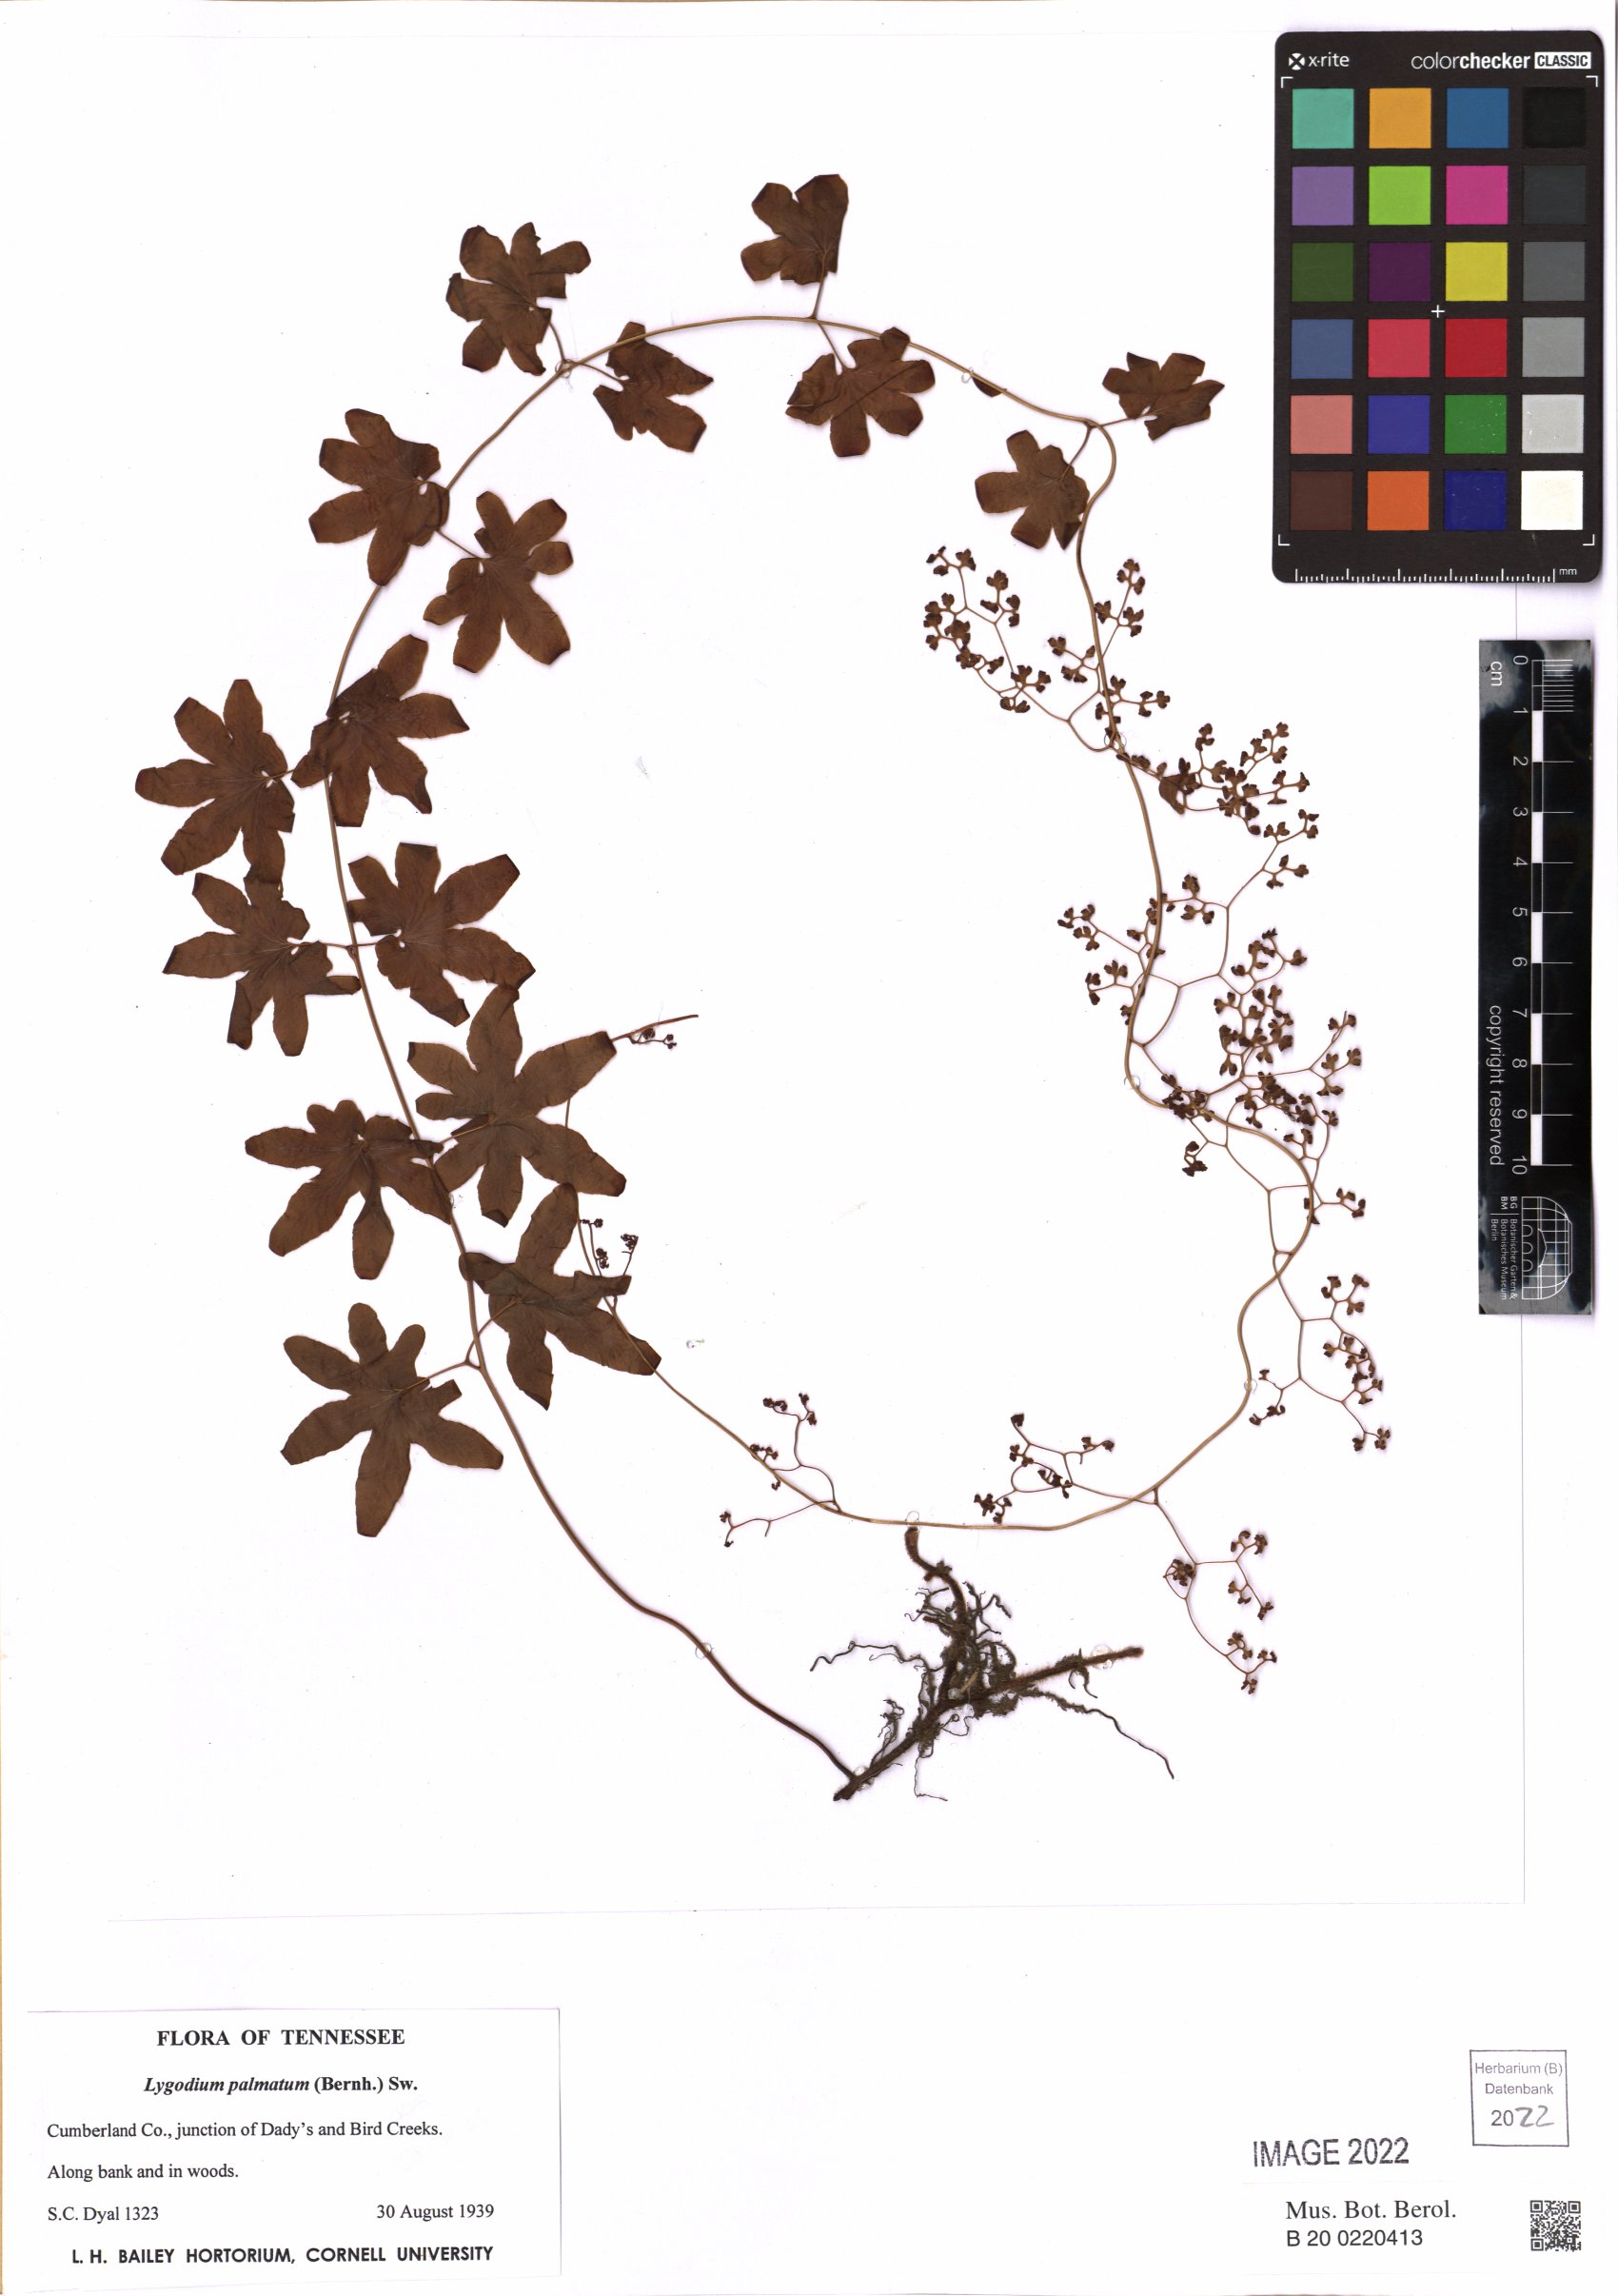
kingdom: Plantae
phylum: Tracheophyta
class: Polypodiopsida
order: Schizaeales
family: Lygodiaceae
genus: Lygodium
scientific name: Lygodium palmatum
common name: American climbing fern
